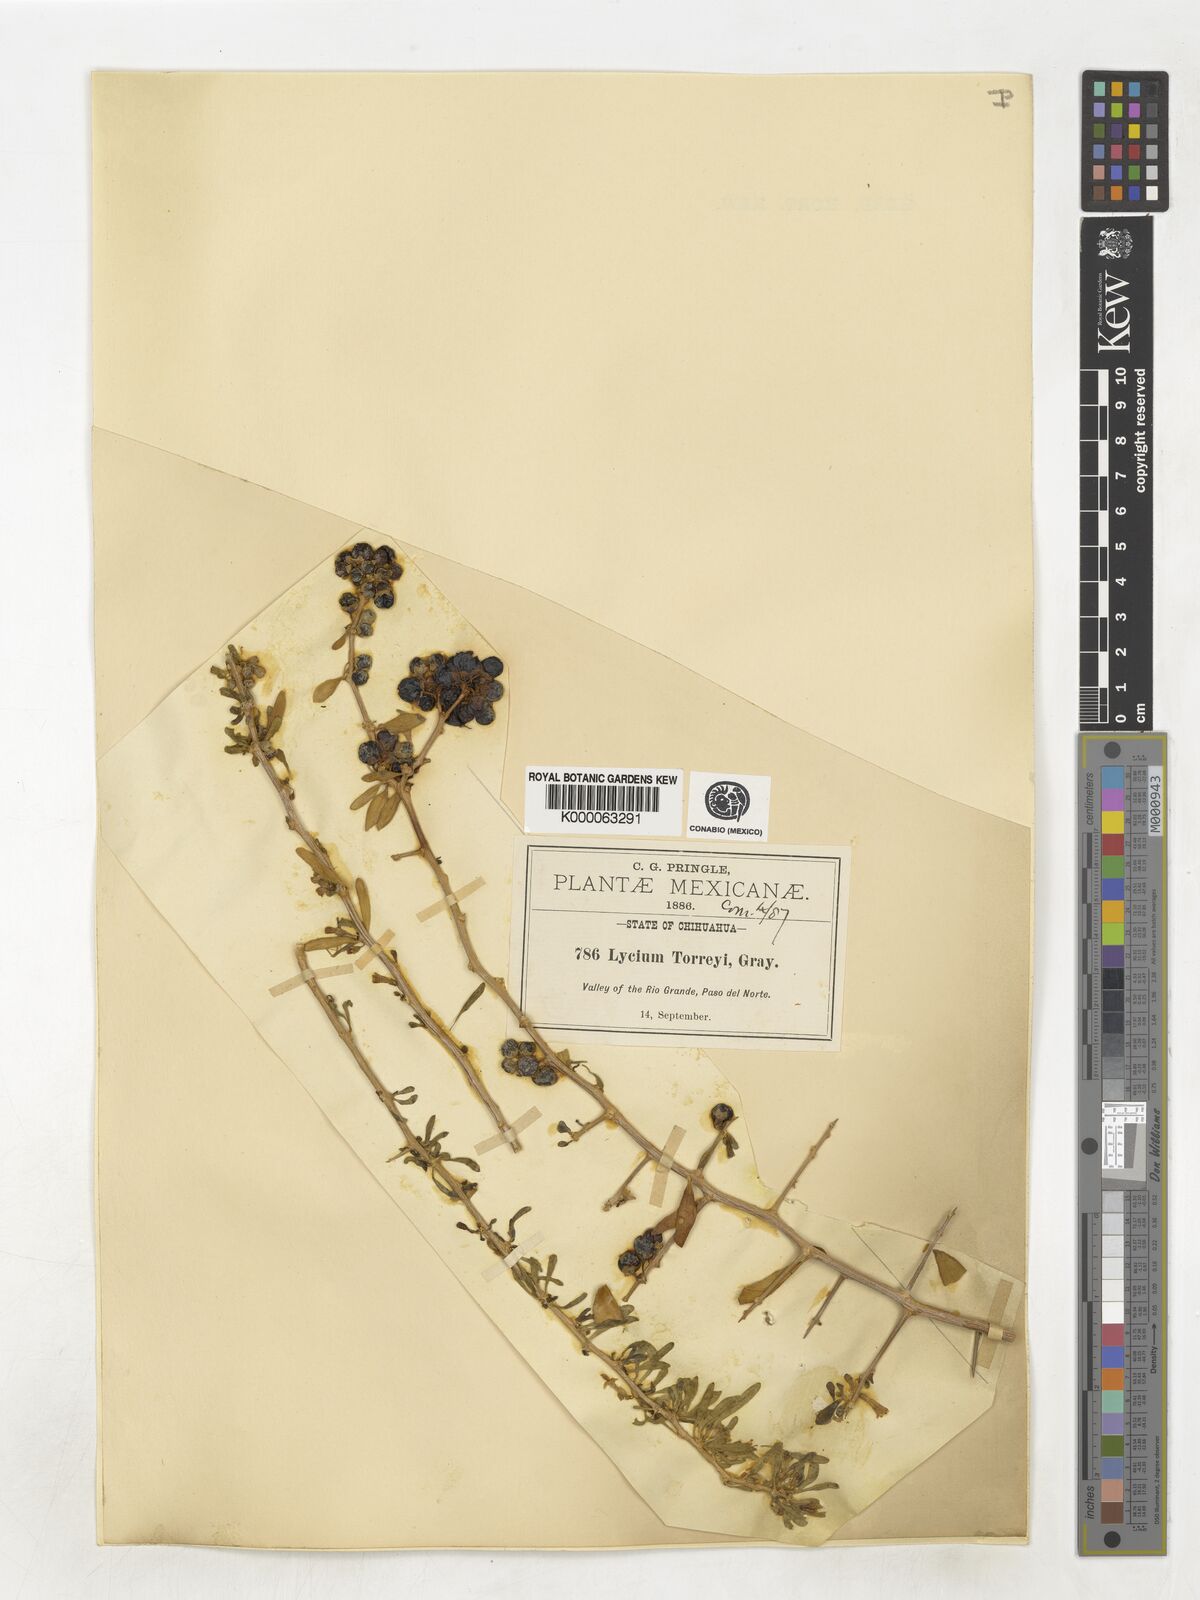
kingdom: Plantae
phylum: Tracheophyta
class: Magnoliopsida
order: Solanales
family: Solanaceae
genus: Lycium
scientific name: Lycium torreyi
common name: Torrey's lycium
